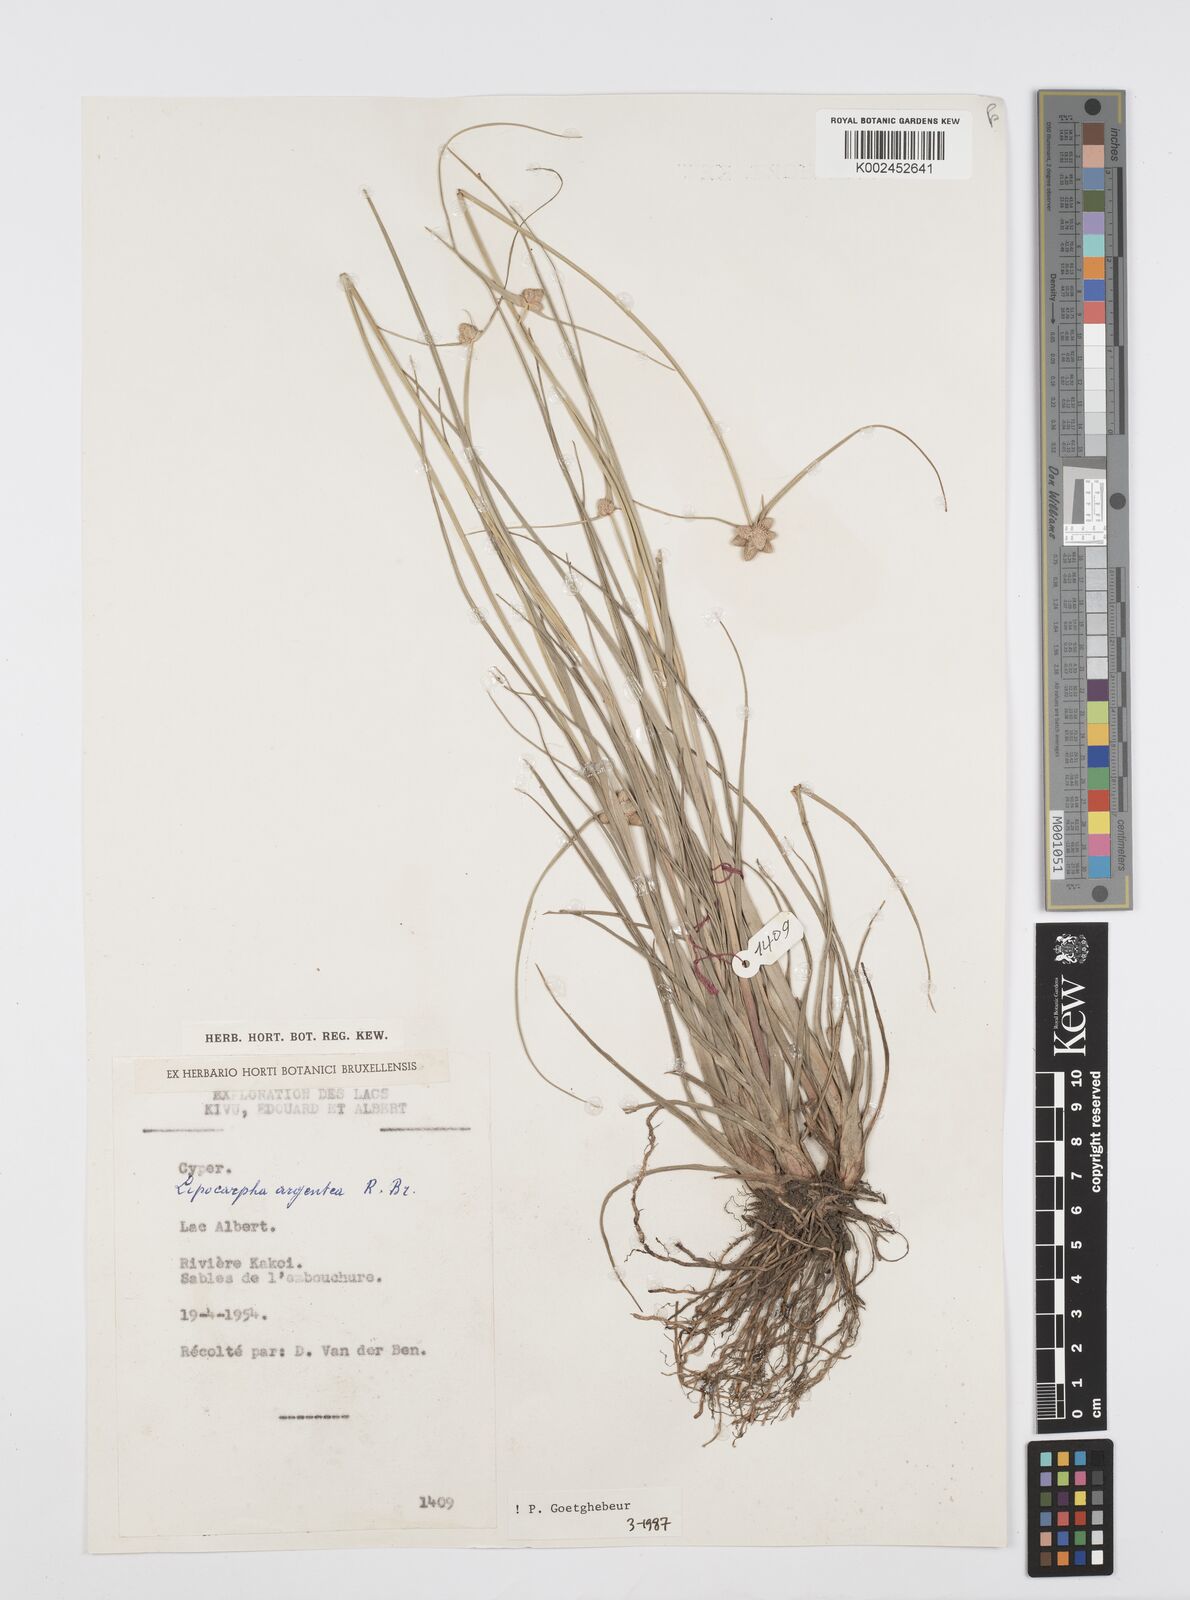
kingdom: Plantae
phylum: Tracheophyta
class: Liliopsida
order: Poales
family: Cyperaceae
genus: Cyperus
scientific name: Cyperus albescens
